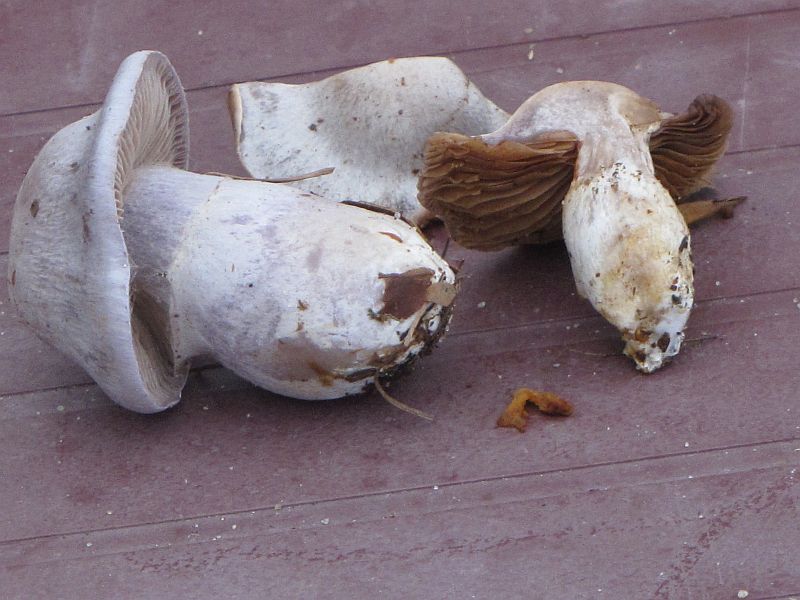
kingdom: Fungi
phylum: Basidiomycota
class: Agaricomycetes
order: Agaricales
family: Cortinariaceae
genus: Cortinarius
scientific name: Cortinarius alboviolaceus
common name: lysviolet slørhat
